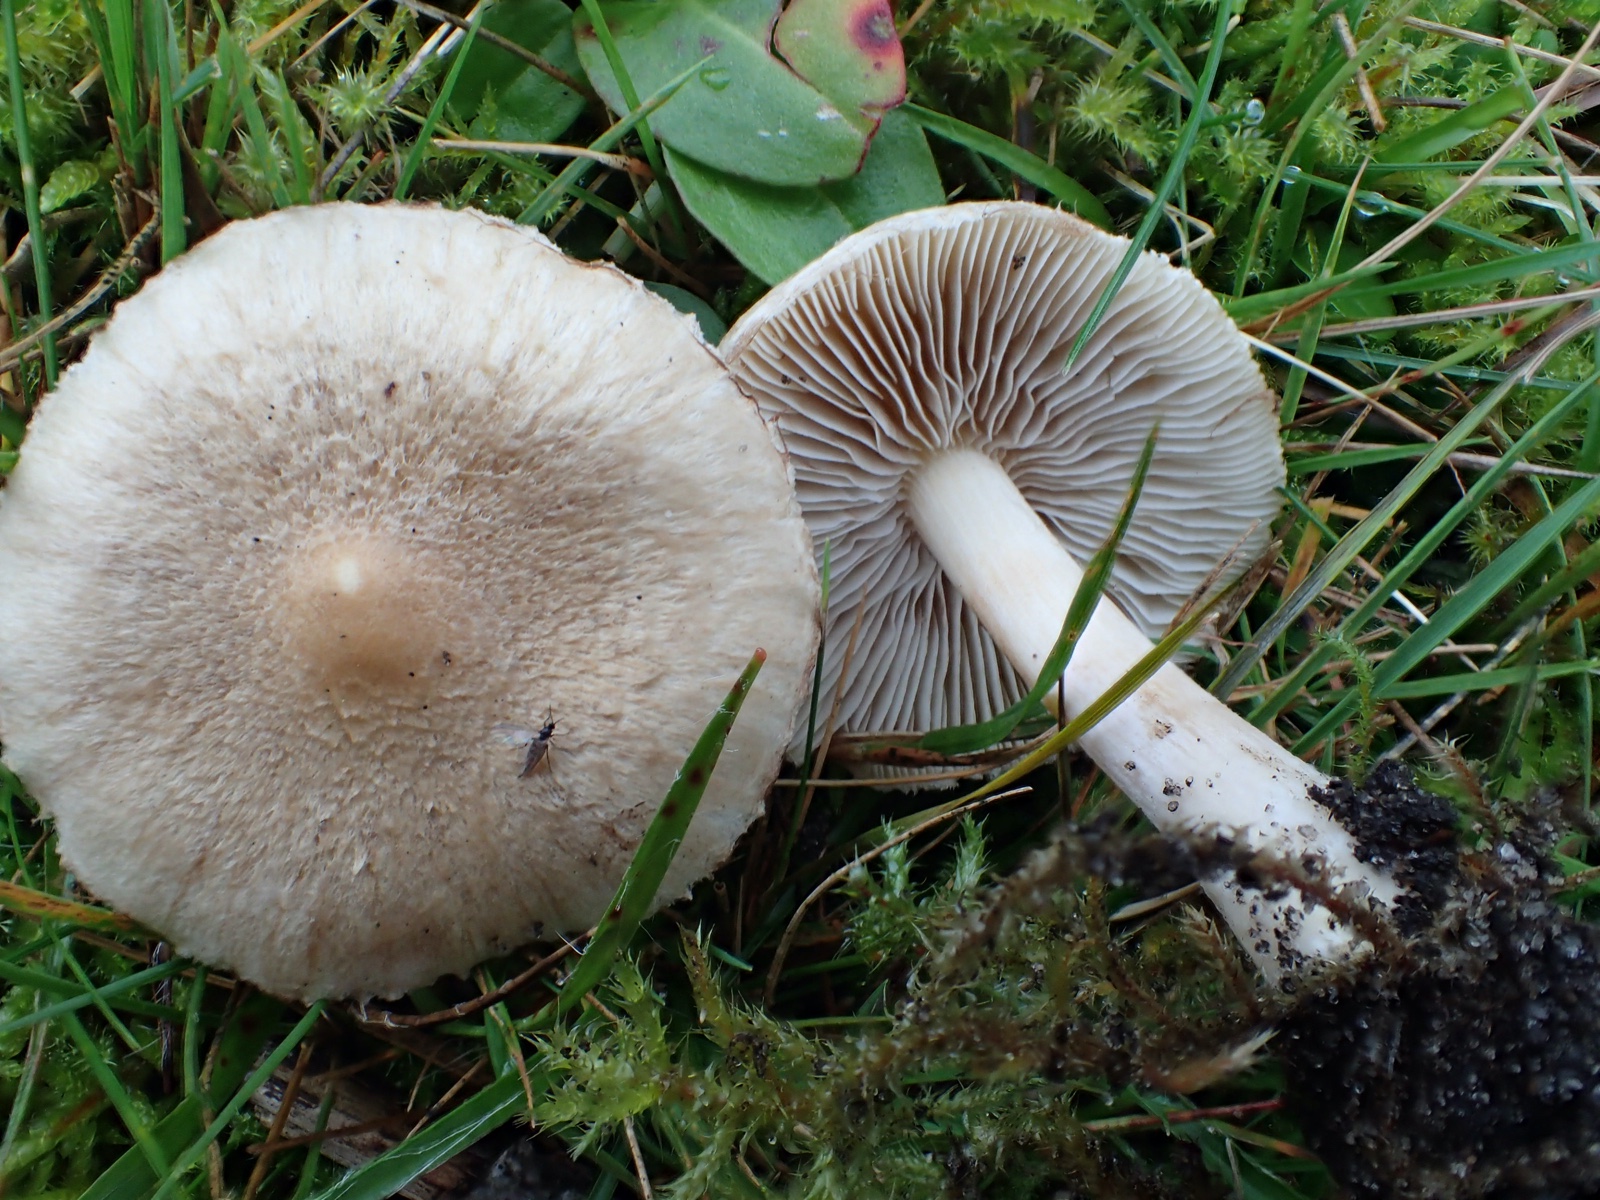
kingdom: Fungi
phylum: Basidiomycota
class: Agaricomycetes
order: Agaricales
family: Inocybaceae
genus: Inocybe
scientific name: Inocybe sindonia
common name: bleg trævlhat
